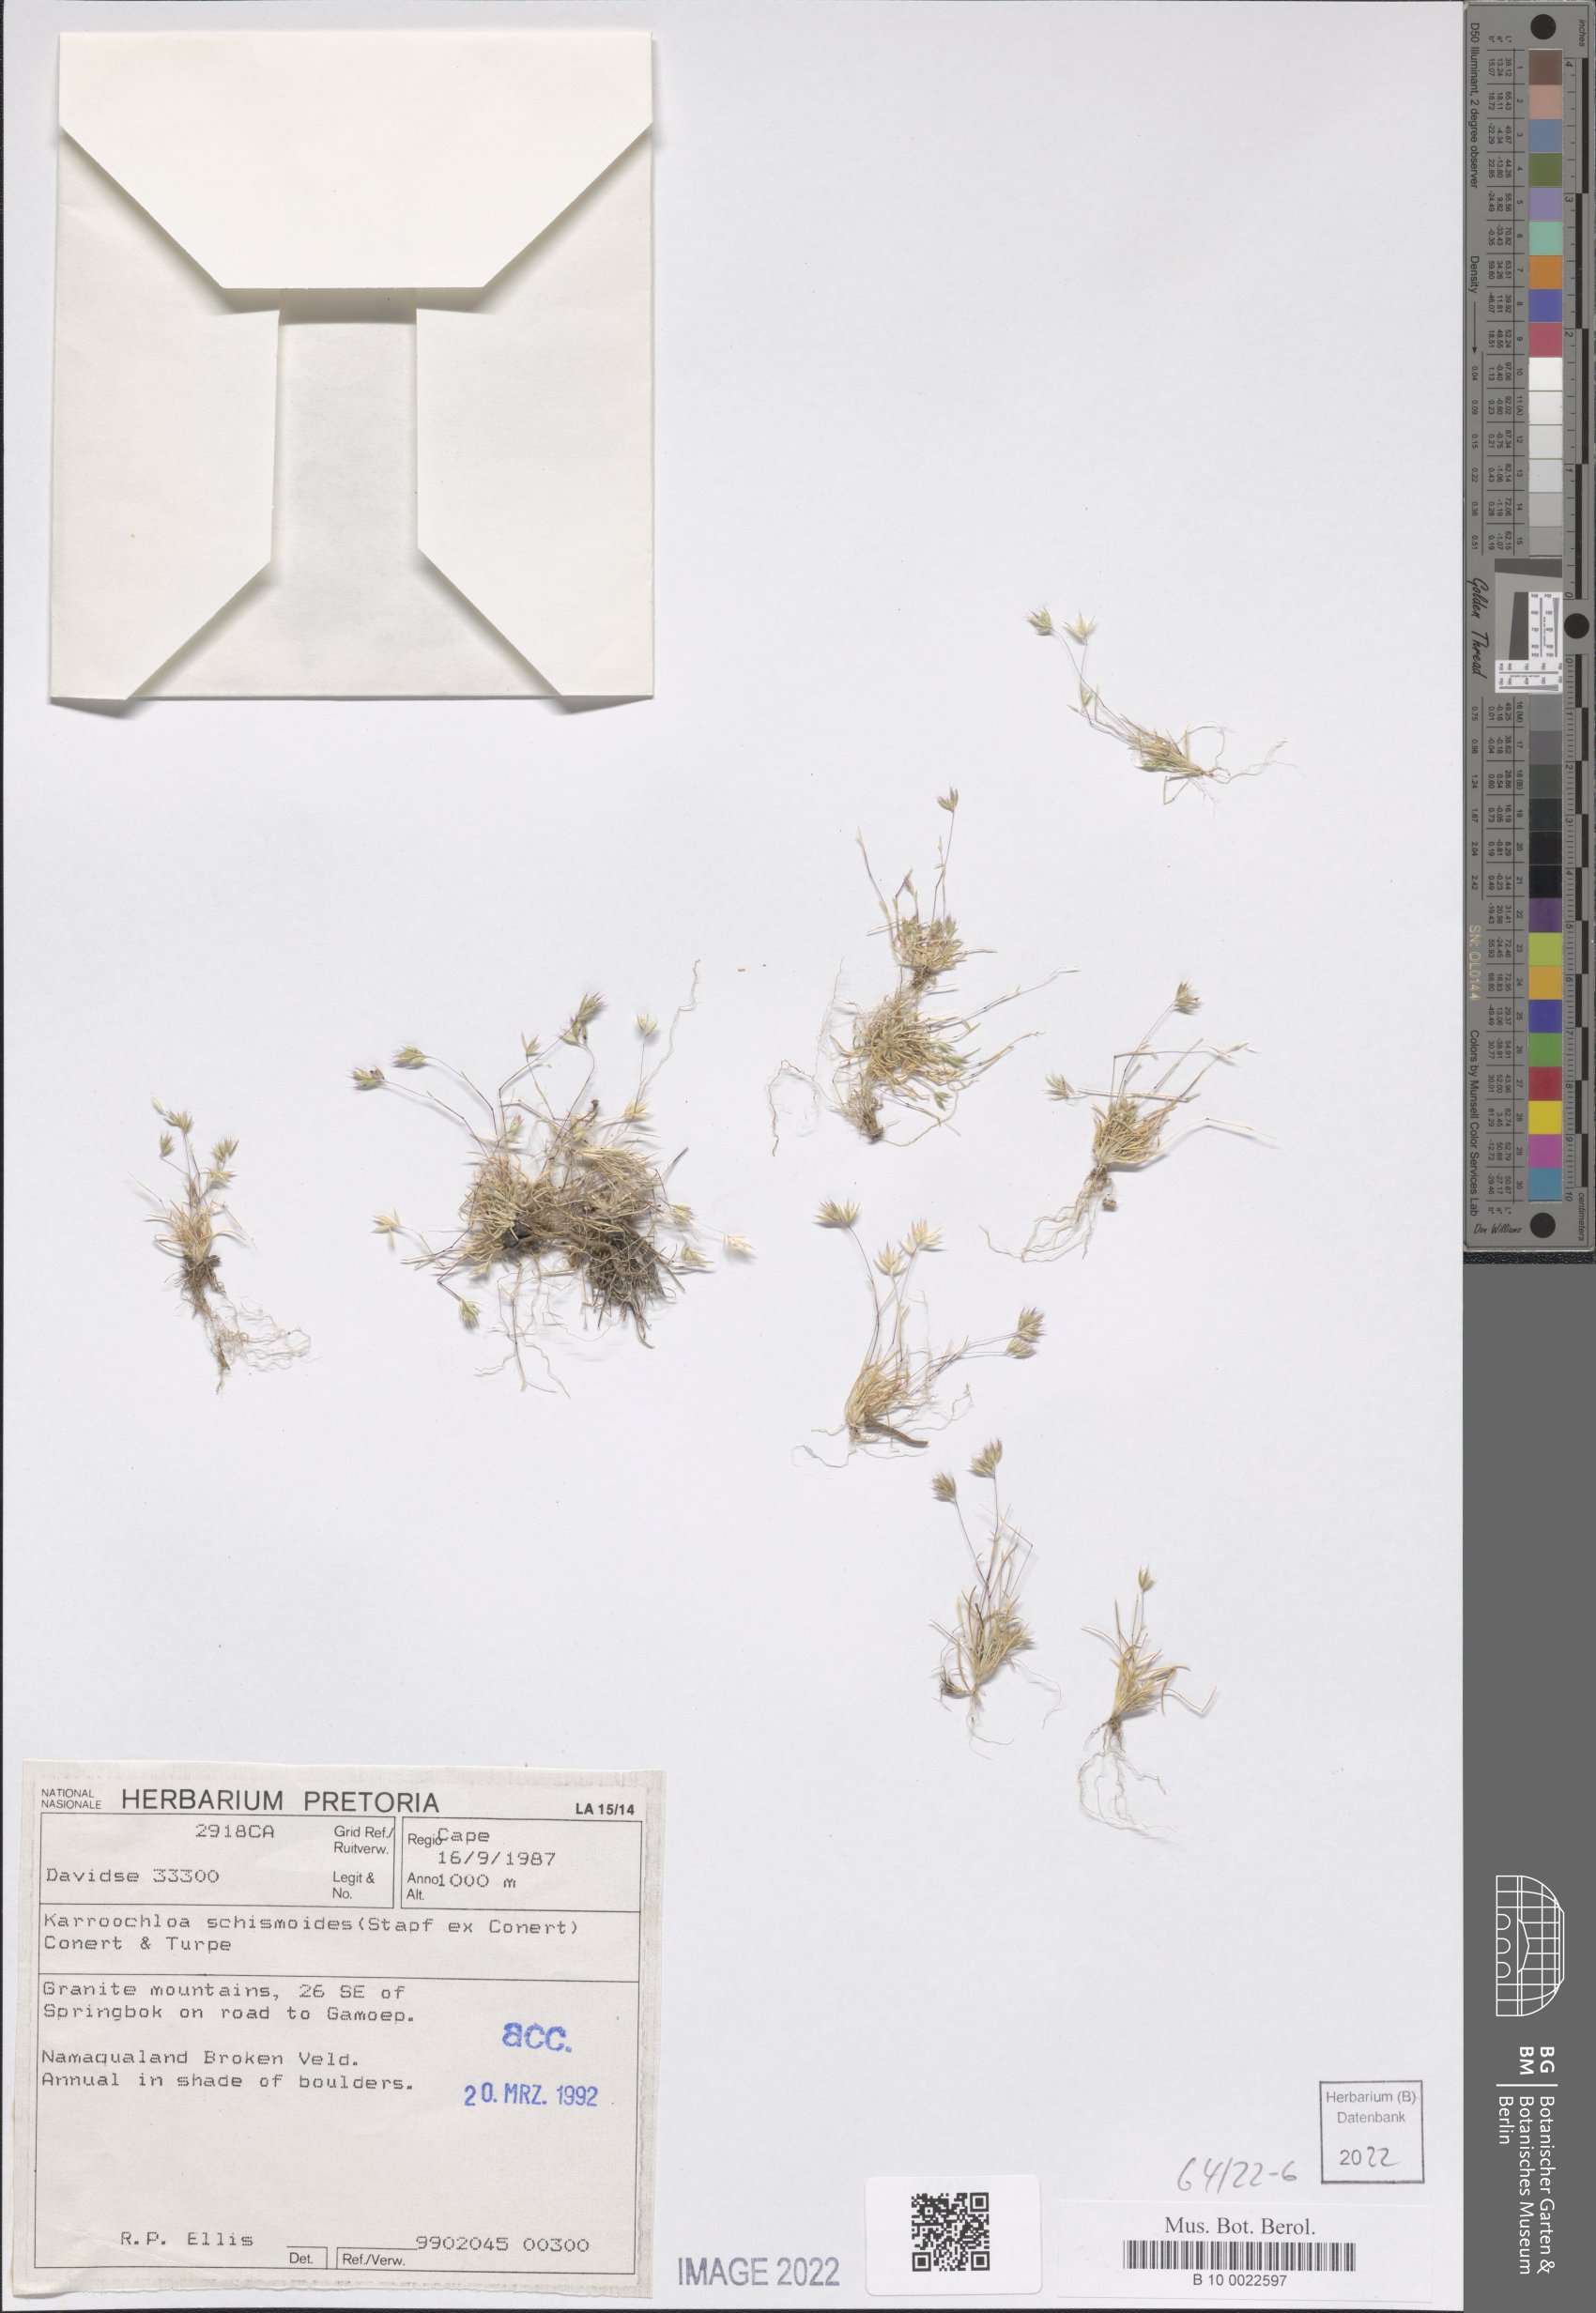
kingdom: Plantae
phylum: Tracheophyta
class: Liliopsida
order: Poales
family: Poaceae
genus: Schismus
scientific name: Schismus schismoides
